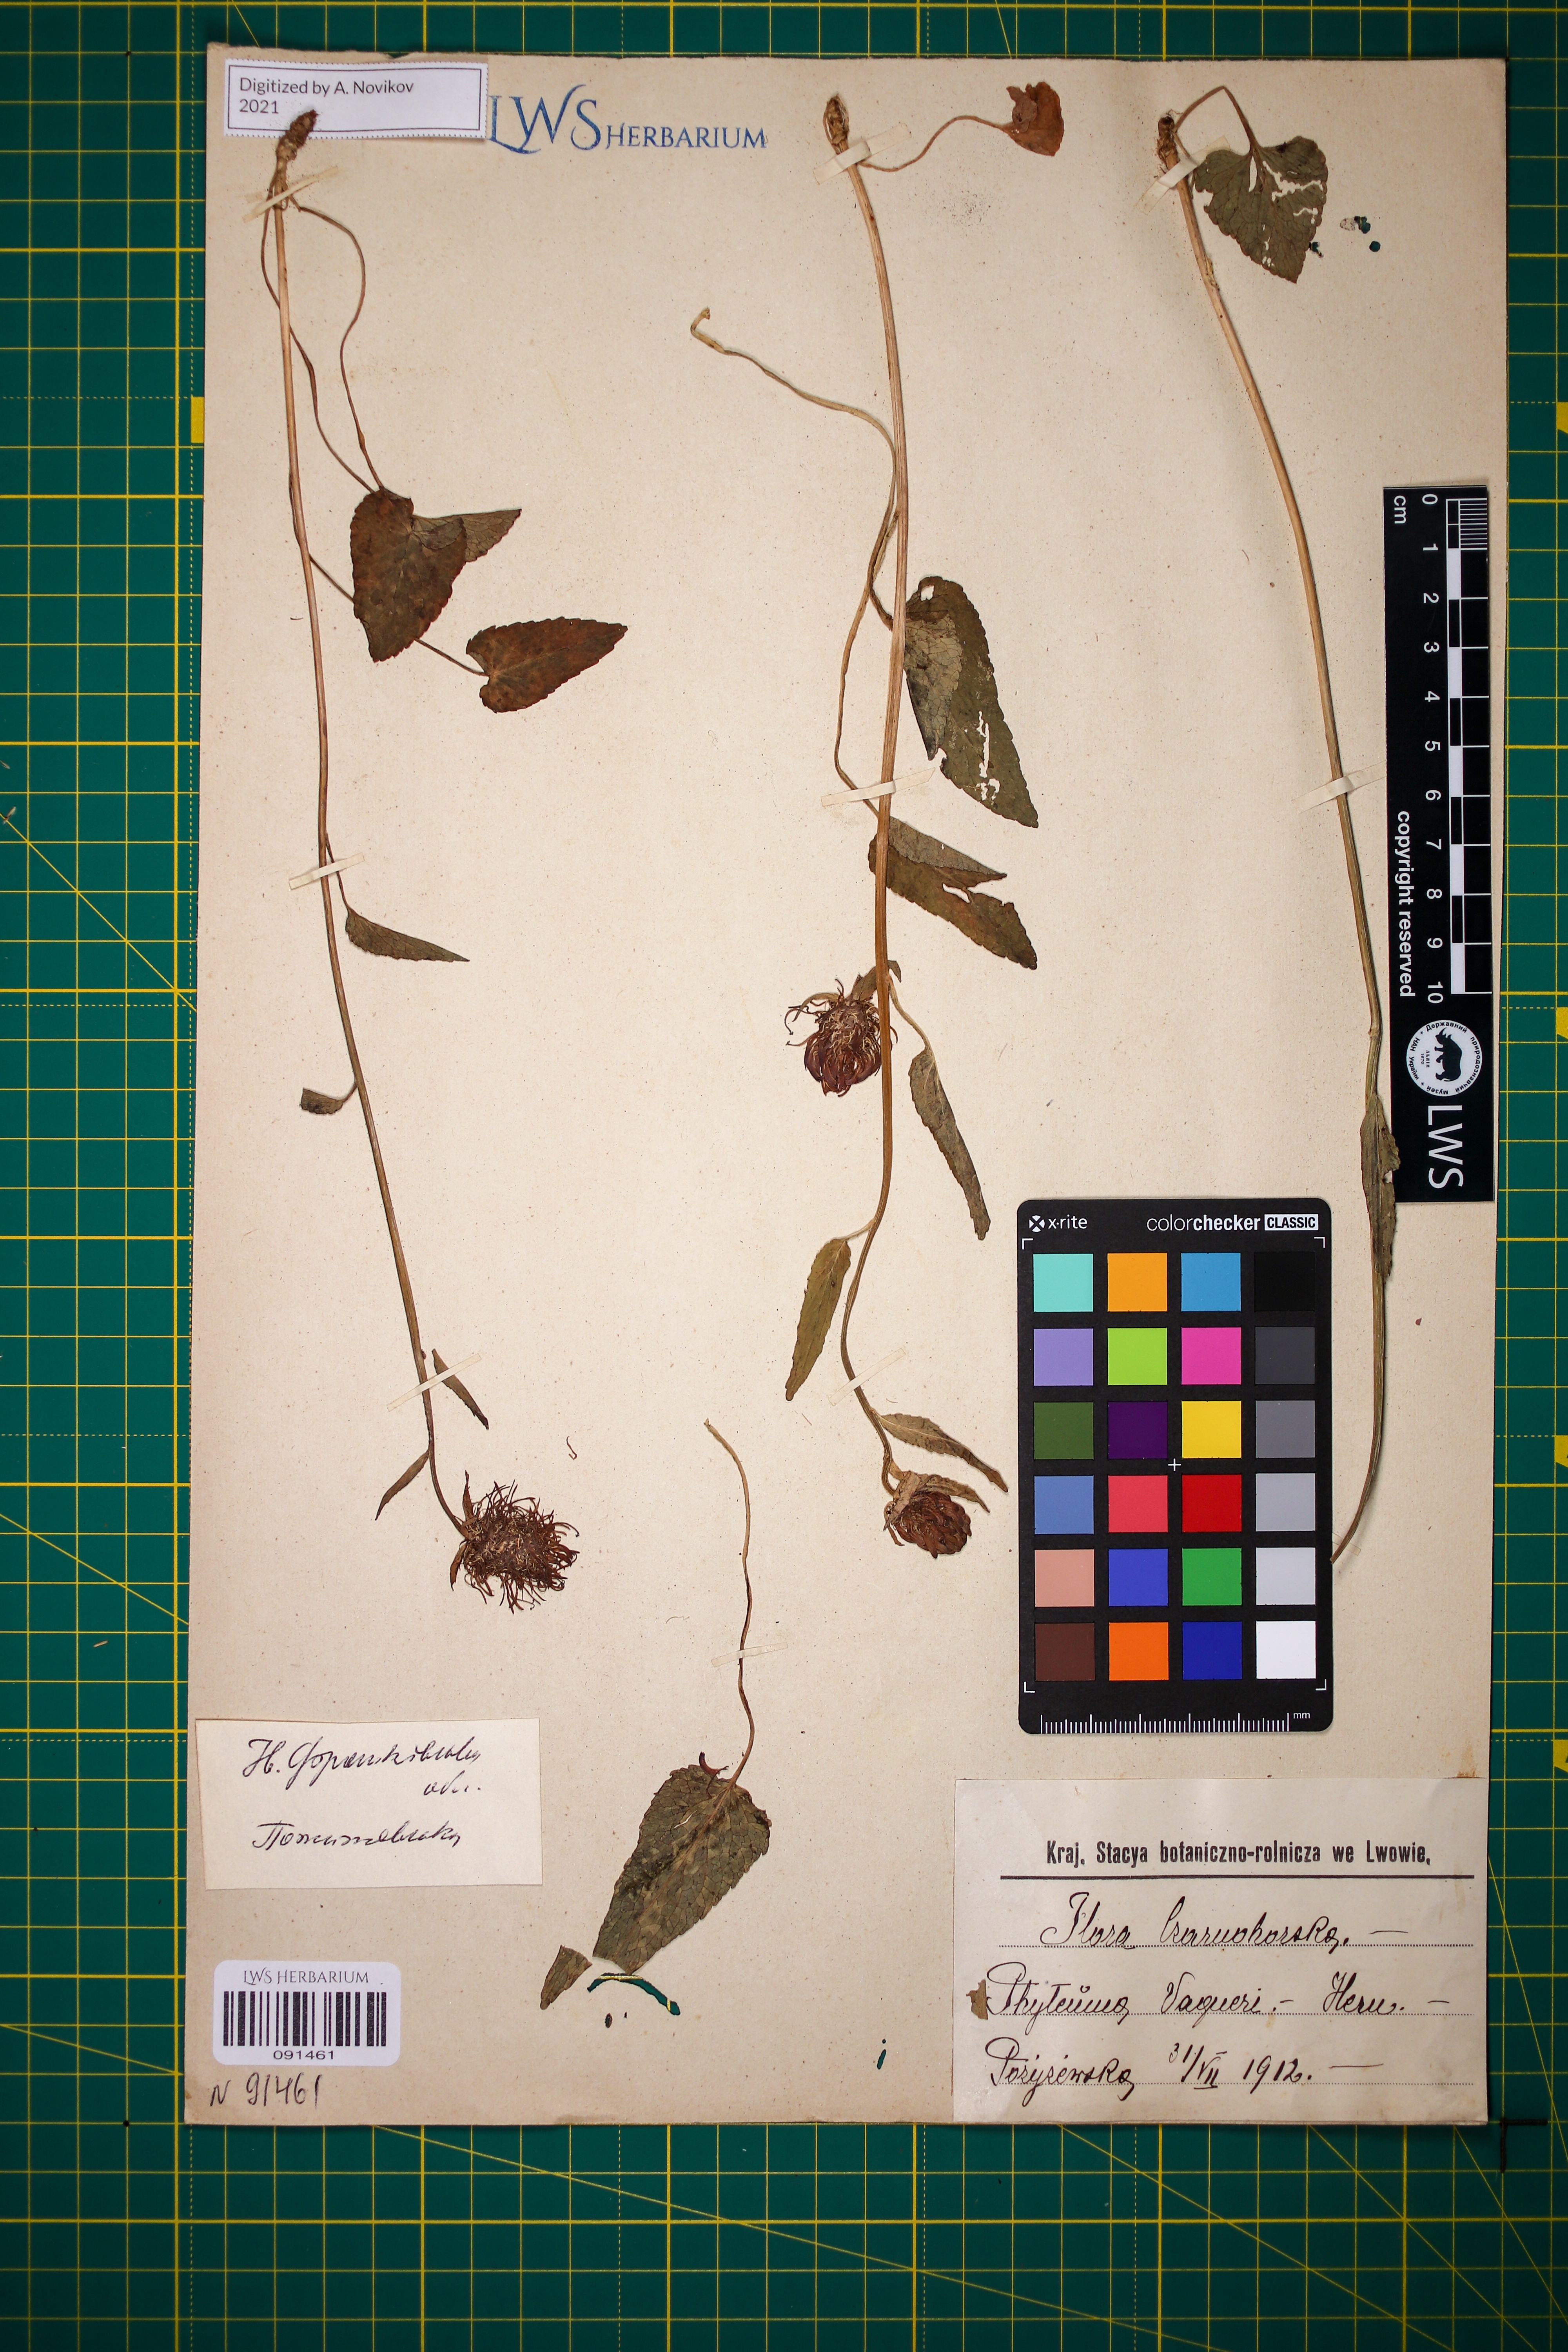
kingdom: Plantae
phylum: Tracheophyta
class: Magnoliopsida
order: Asterales
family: Campanulaceae
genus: Phyteuma
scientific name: Phyteuma vagneri
